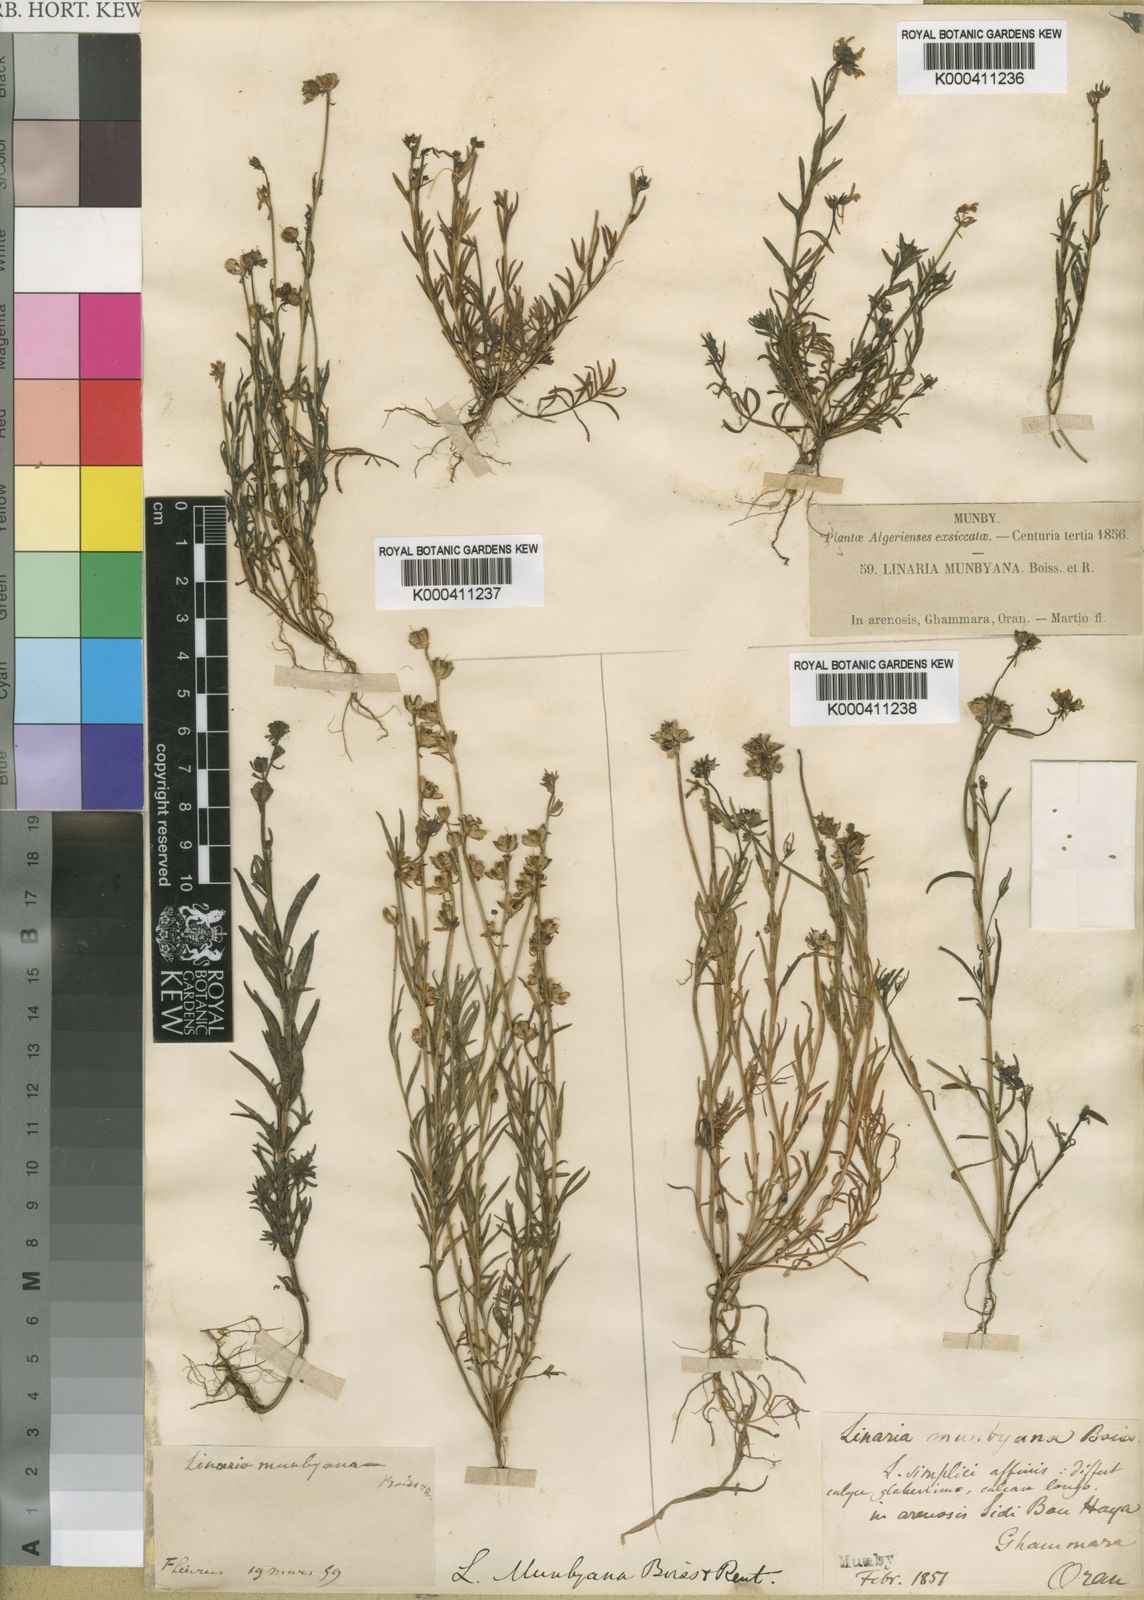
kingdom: Plantae
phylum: Tracheophyta
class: Magnoliopsida
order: Lamiales
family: Plantaginaceae
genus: Linaria
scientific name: Linaria munbyana
